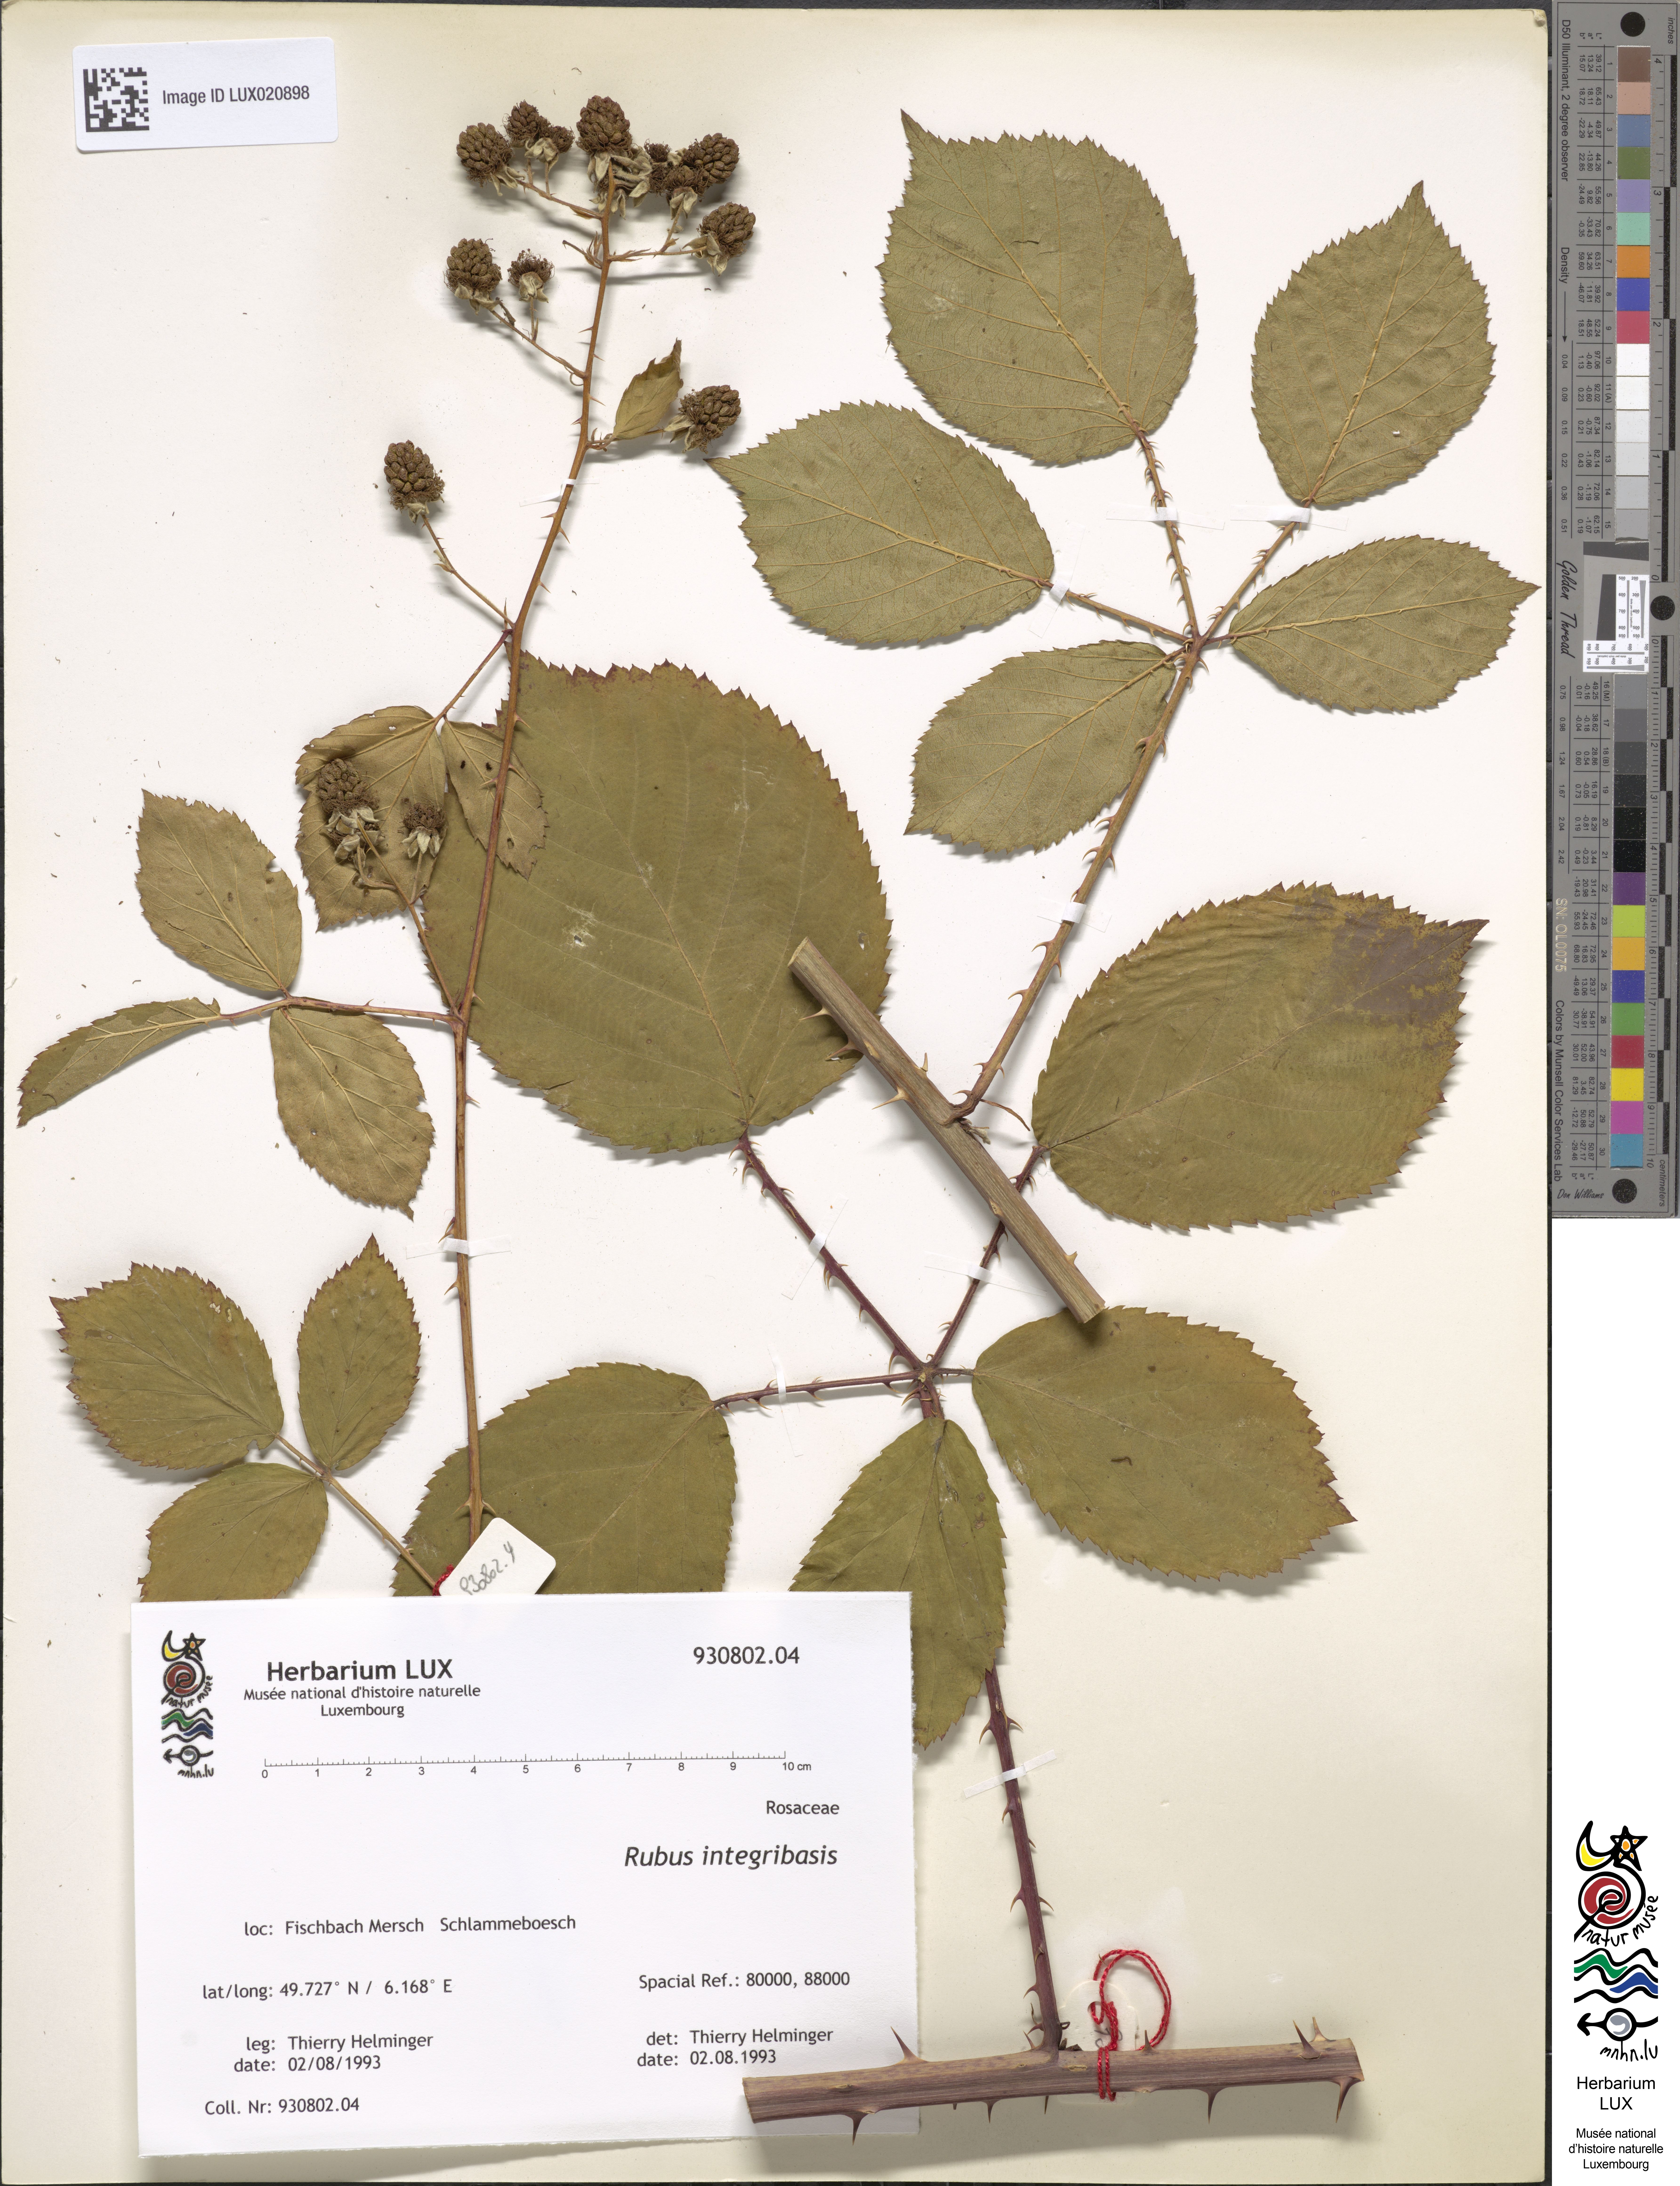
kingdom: Plantae
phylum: Tracheophyta
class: Magnoliopsida
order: Rosales
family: Rosaceae
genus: Rubus
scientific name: Rubus integribasis
